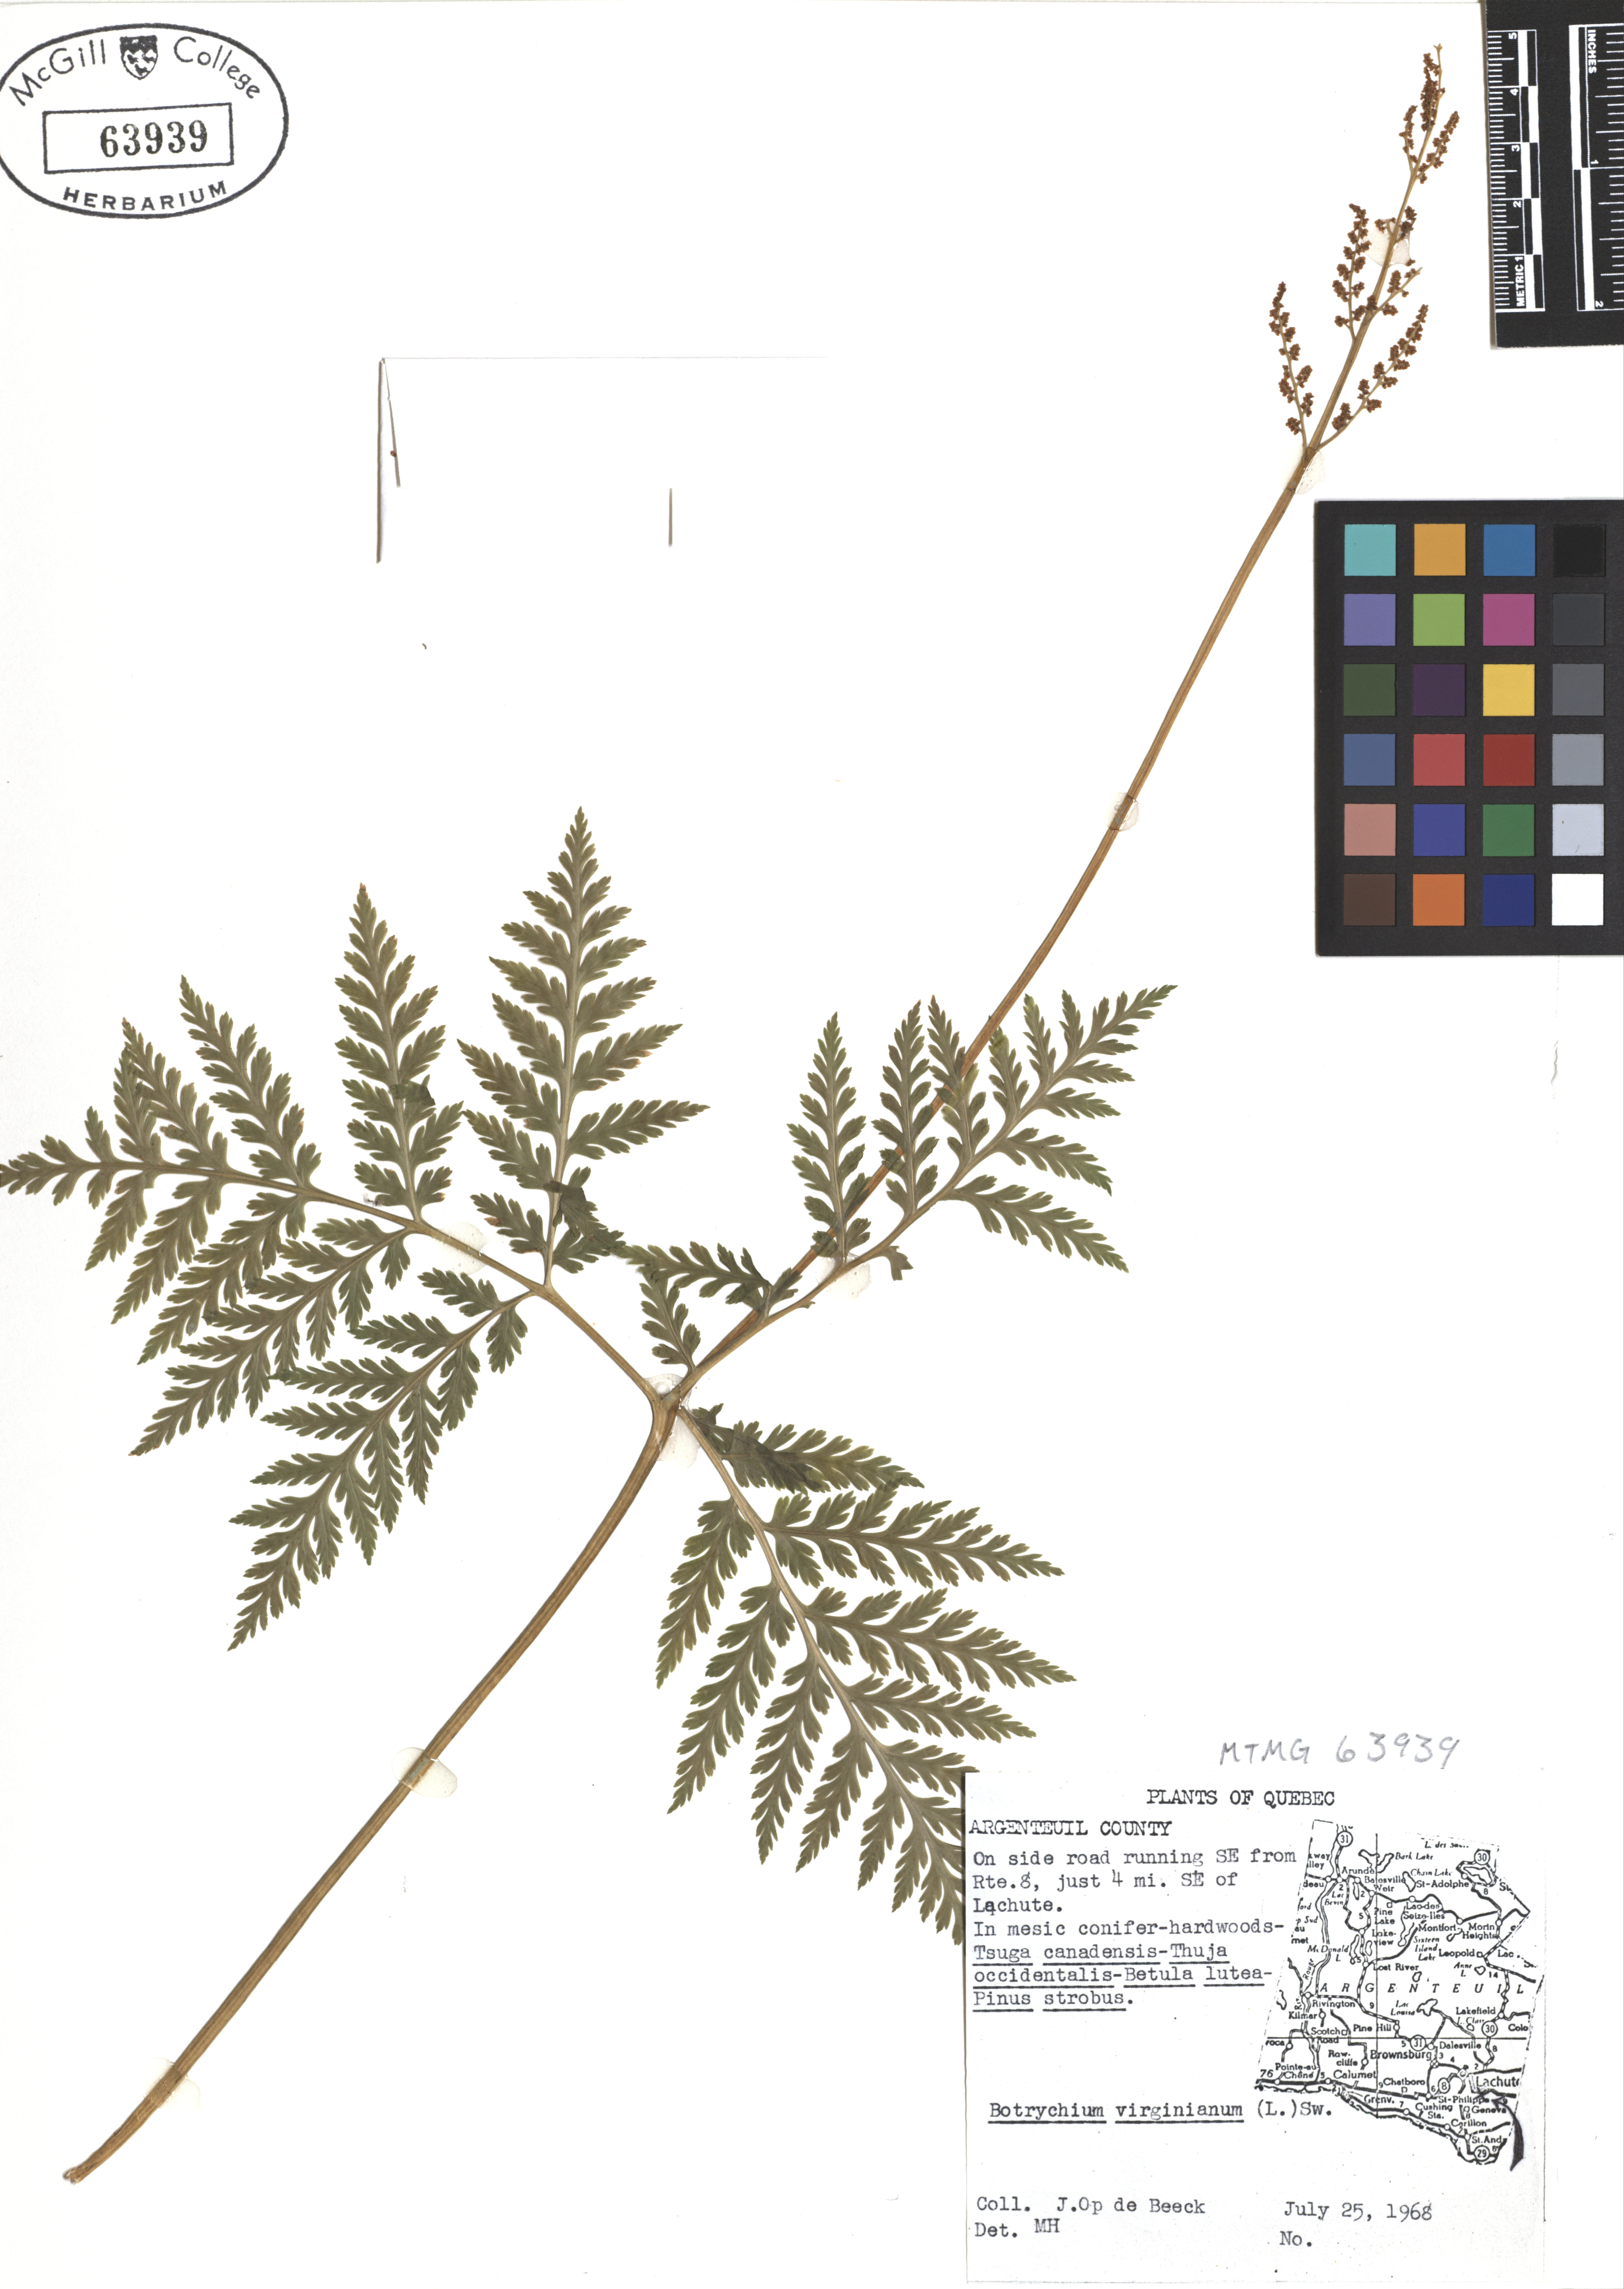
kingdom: Plantae
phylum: Tracheophyta
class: Polypodiopsida
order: Ophioglossales
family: Ophioglossaceae
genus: Botrypus
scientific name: Botrypus virginianus
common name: Common grapefern
